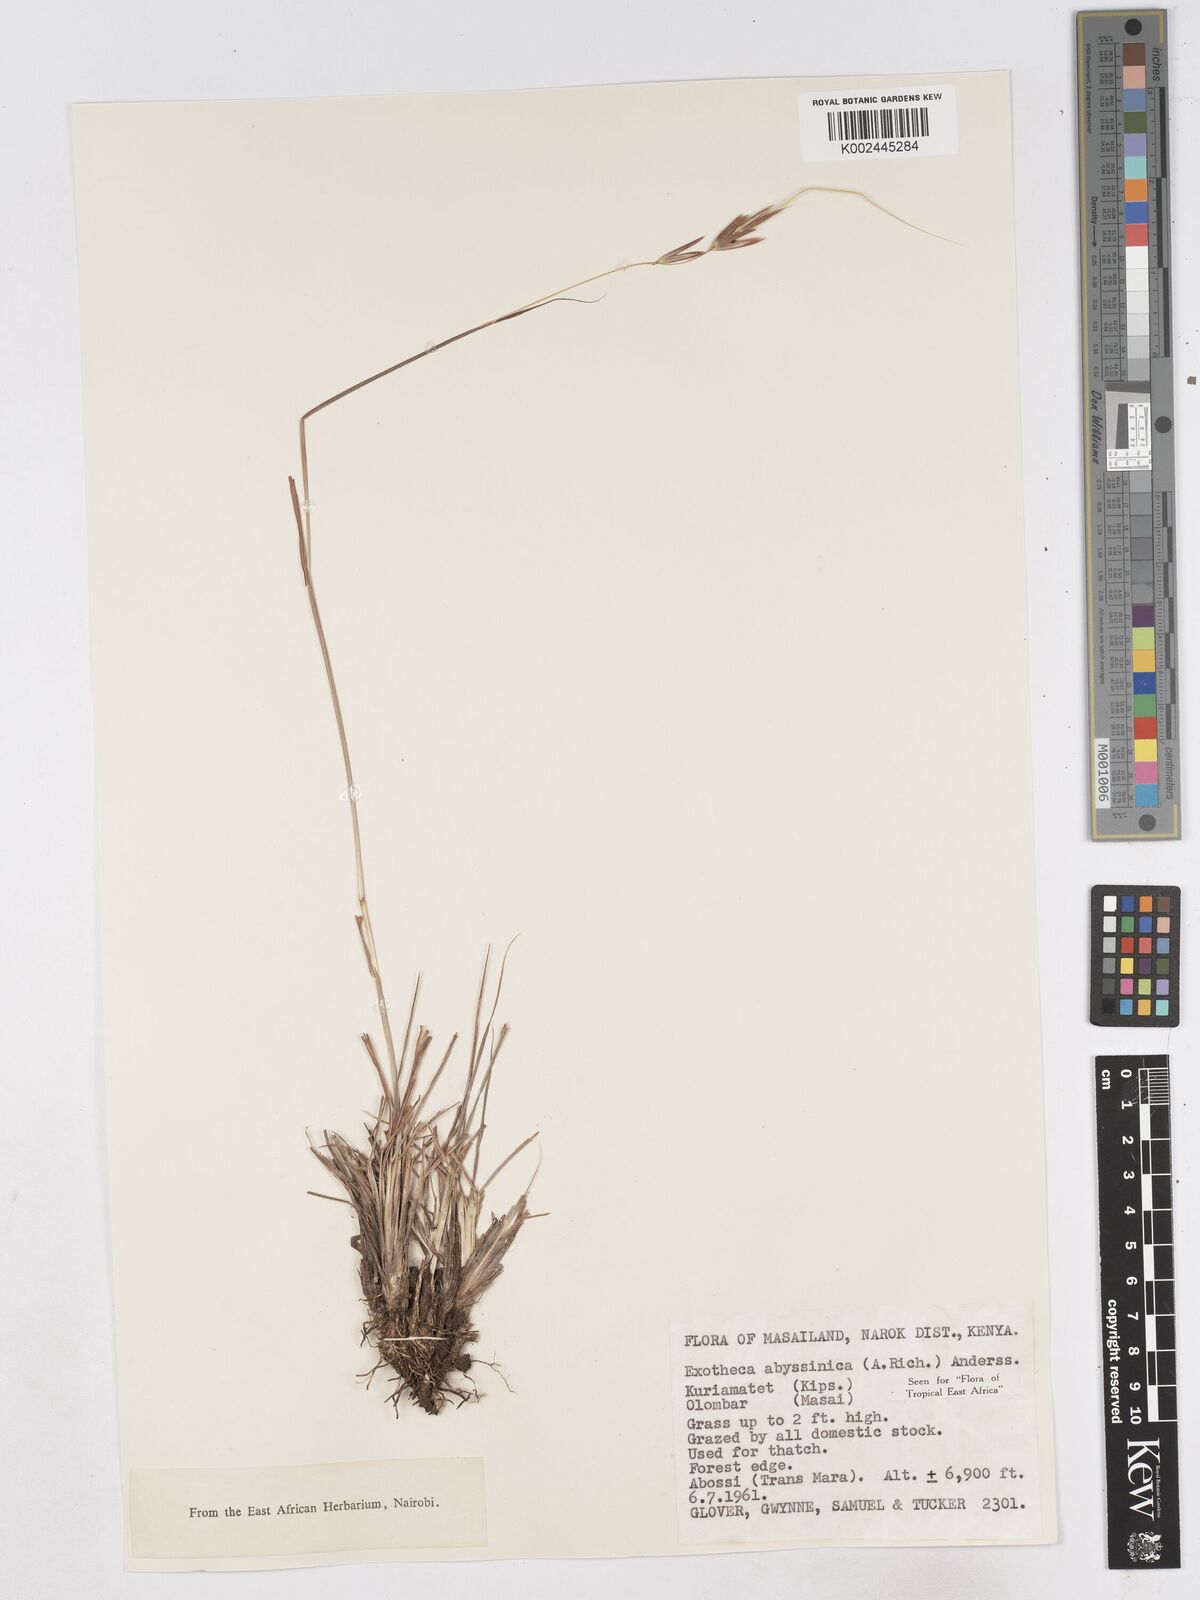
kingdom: Plantae
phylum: Tracheophyta
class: Liliopsida
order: Poales
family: Poaceae
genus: Exotheca
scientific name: Exotheca abyssinica
